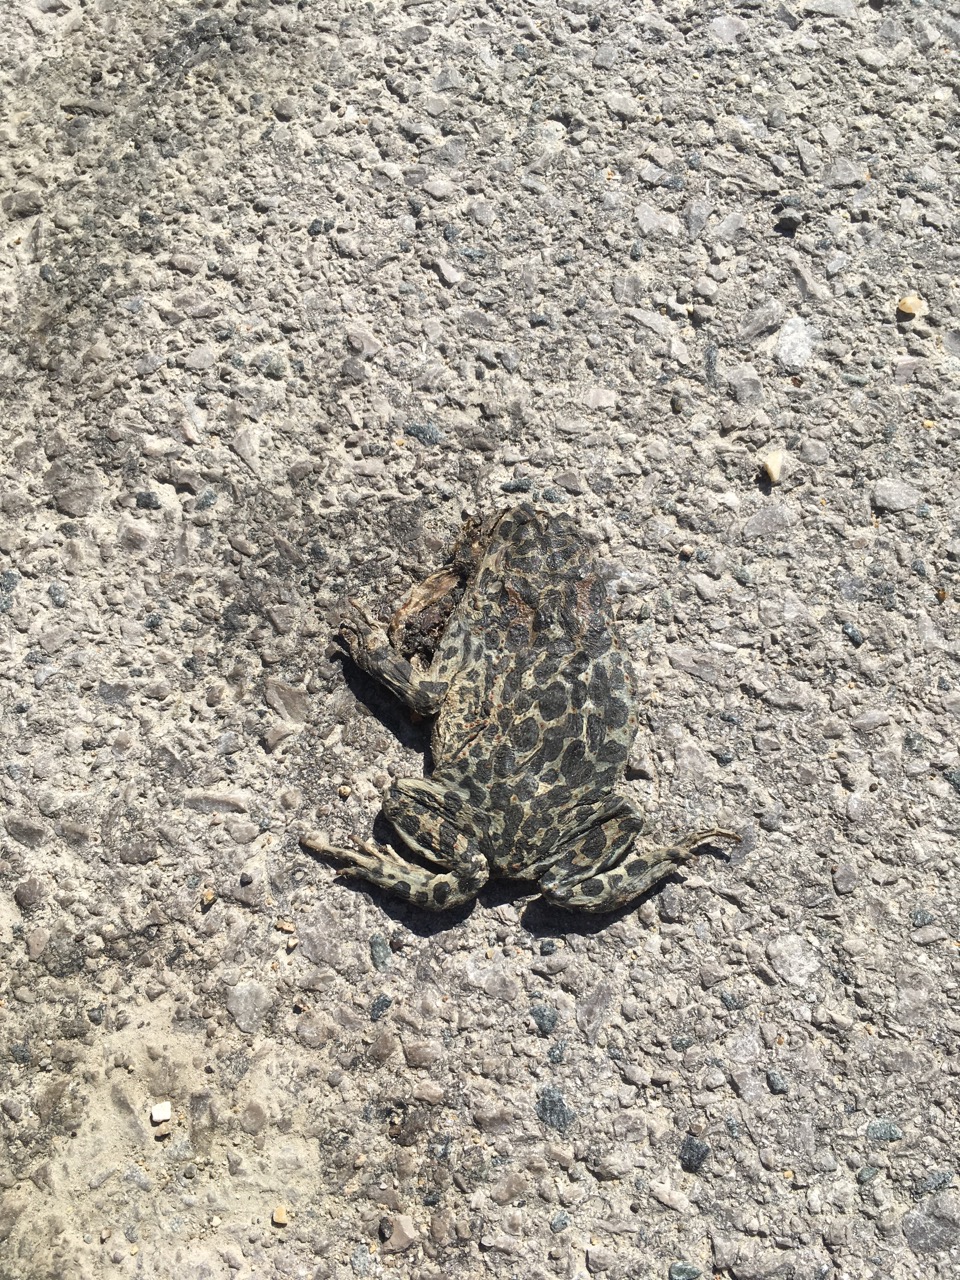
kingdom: Animalia
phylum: Chordata
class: Amphibia
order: Anura
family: Bufonidae
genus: Bufotes
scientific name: Bufotes viridis
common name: European green toad
